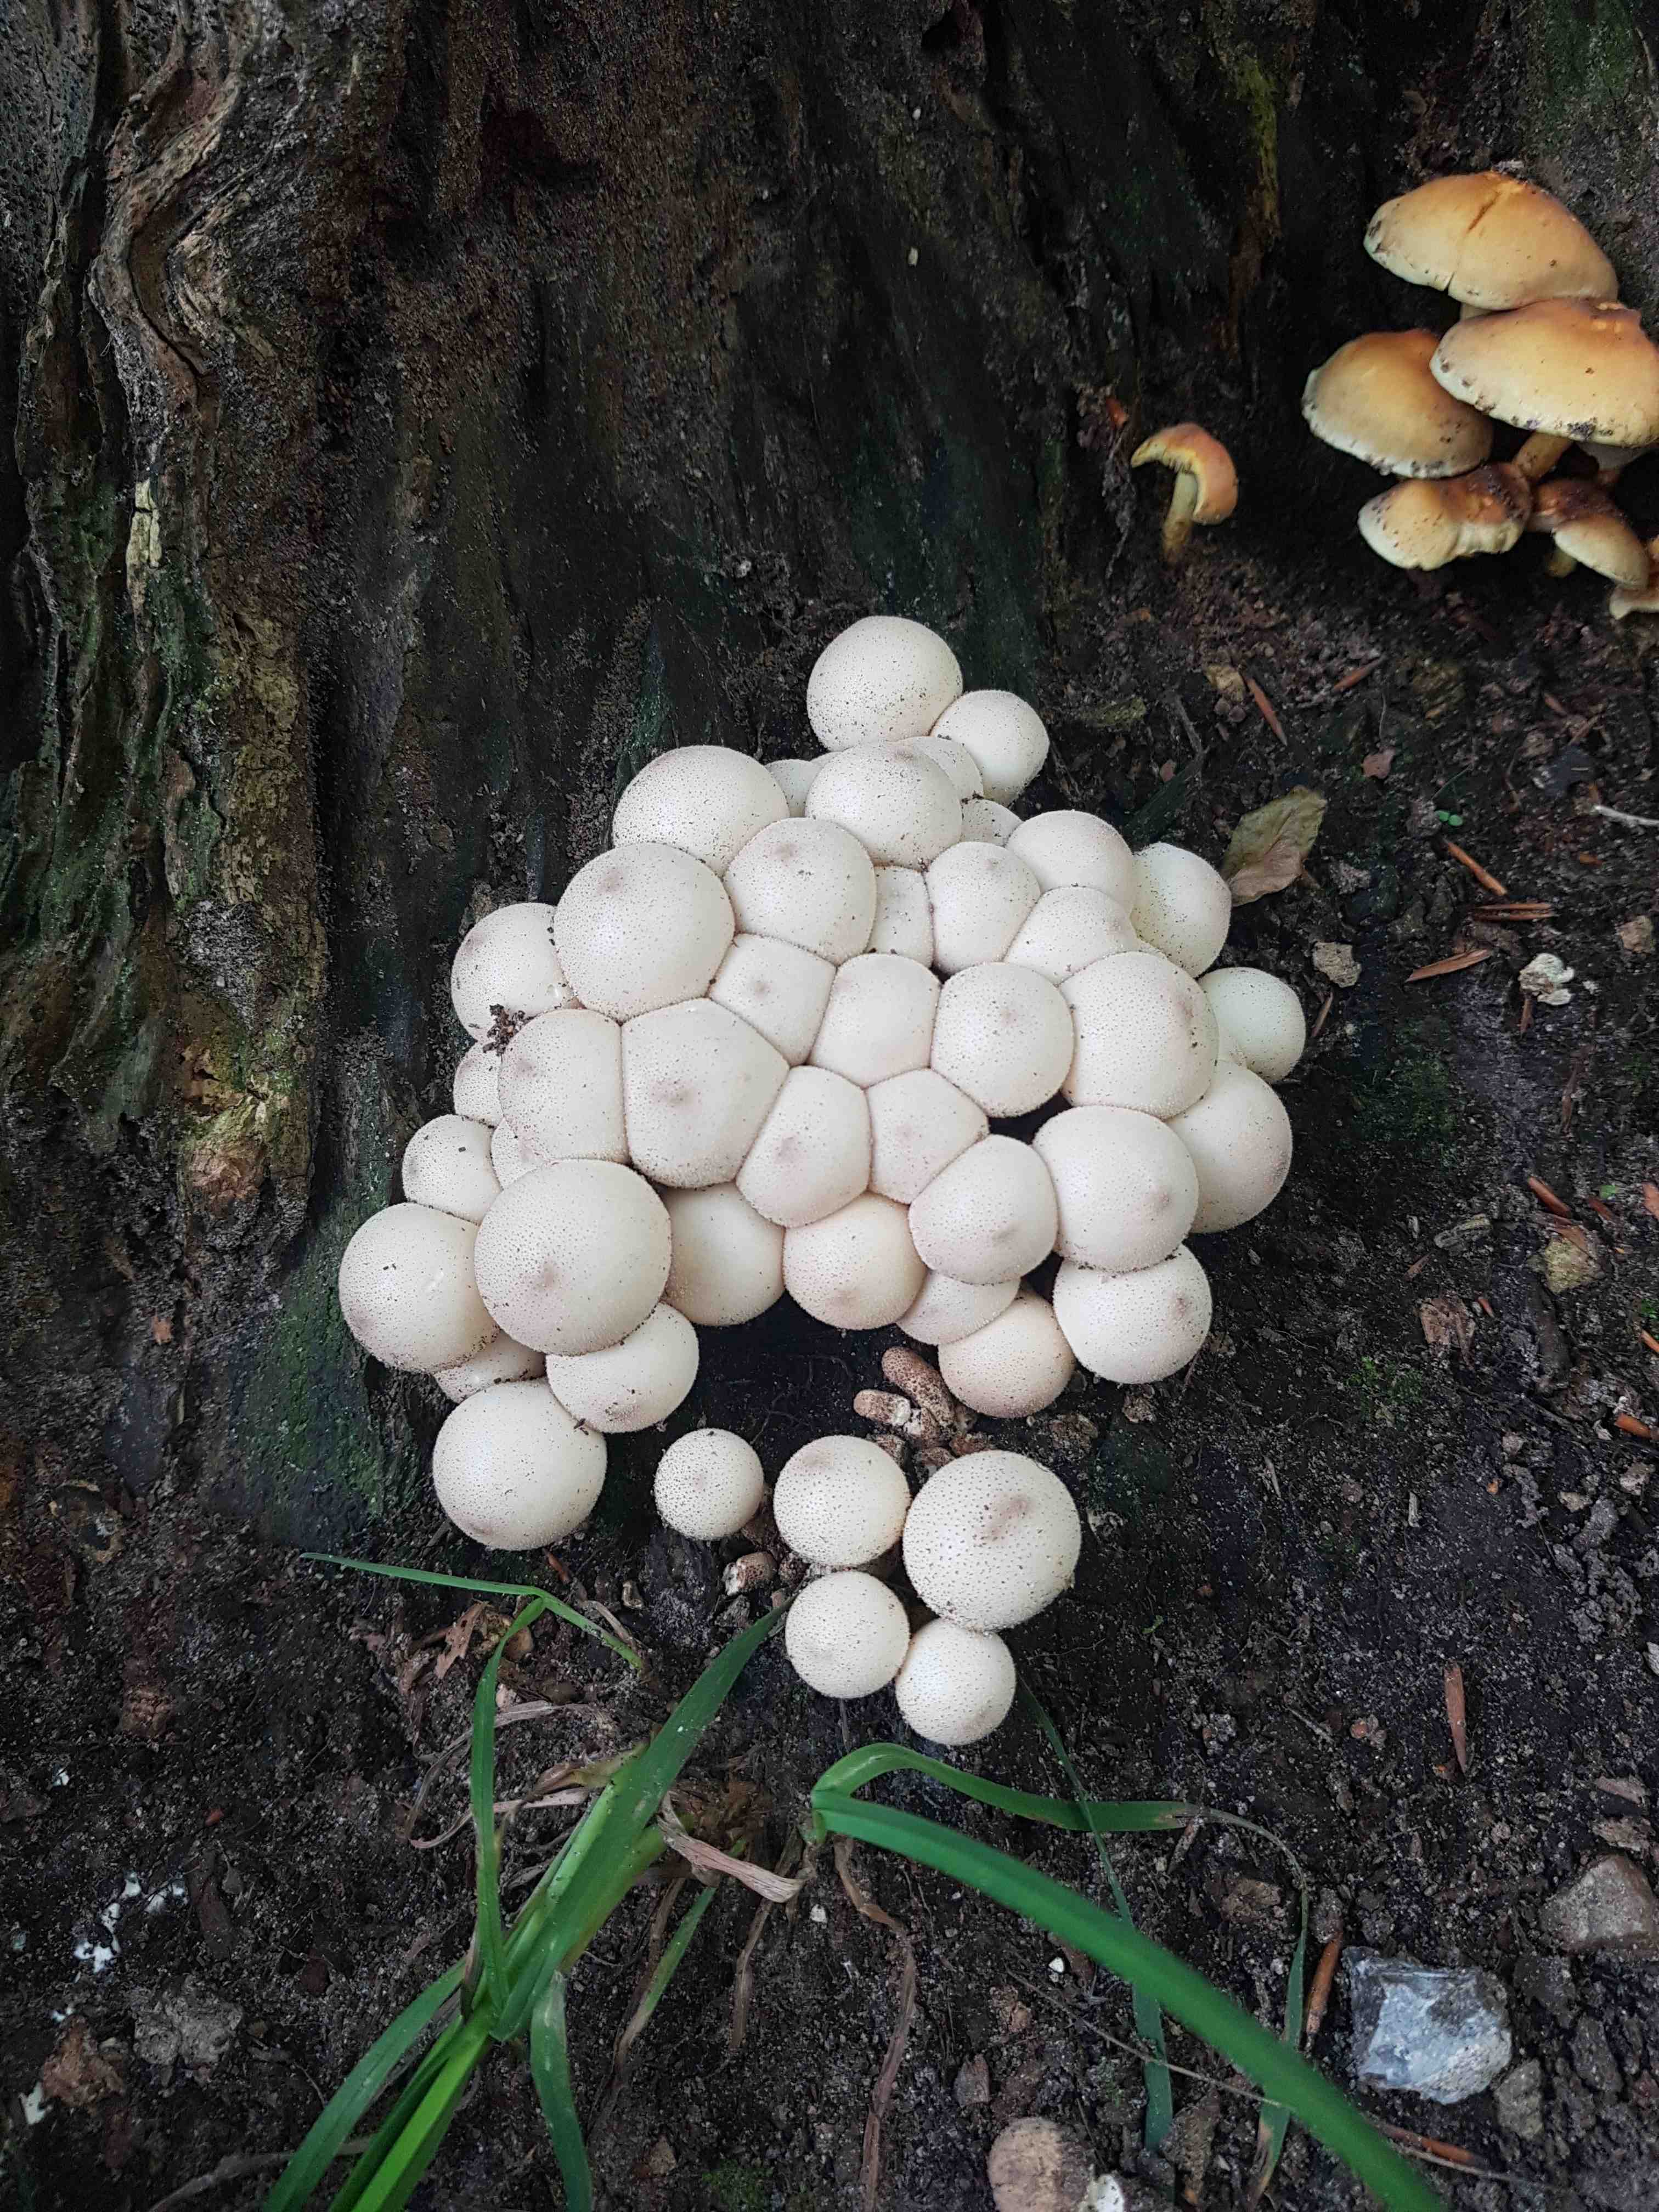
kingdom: Fungi
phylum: Basidiomycota
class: Agaricomycetes
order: Agaricales
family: Lycoperdaceae
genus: Apioperdon
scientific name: Apioperdon pyriforme
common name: pære-støvbold
